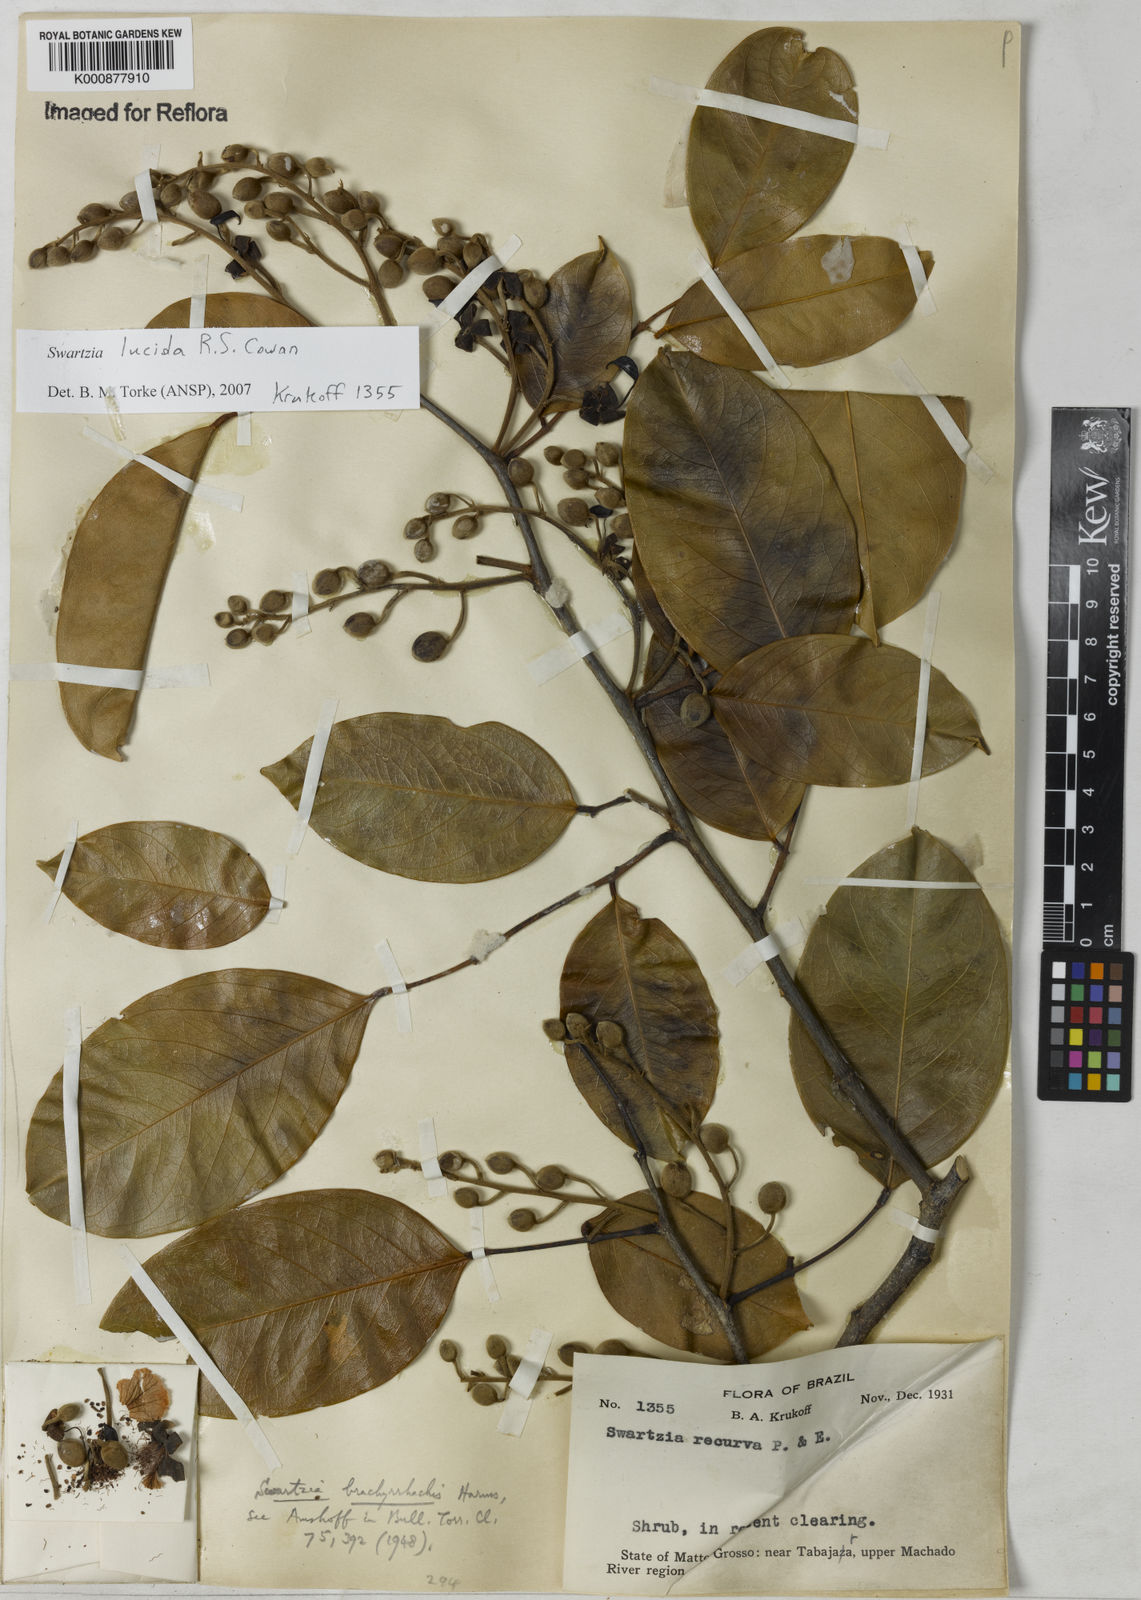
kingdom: Plantae
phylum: Tracheophyta
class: Magnoliopsida
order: Fabales
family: Fabaceae
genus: Swartzia
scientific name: Swartzia lucida
